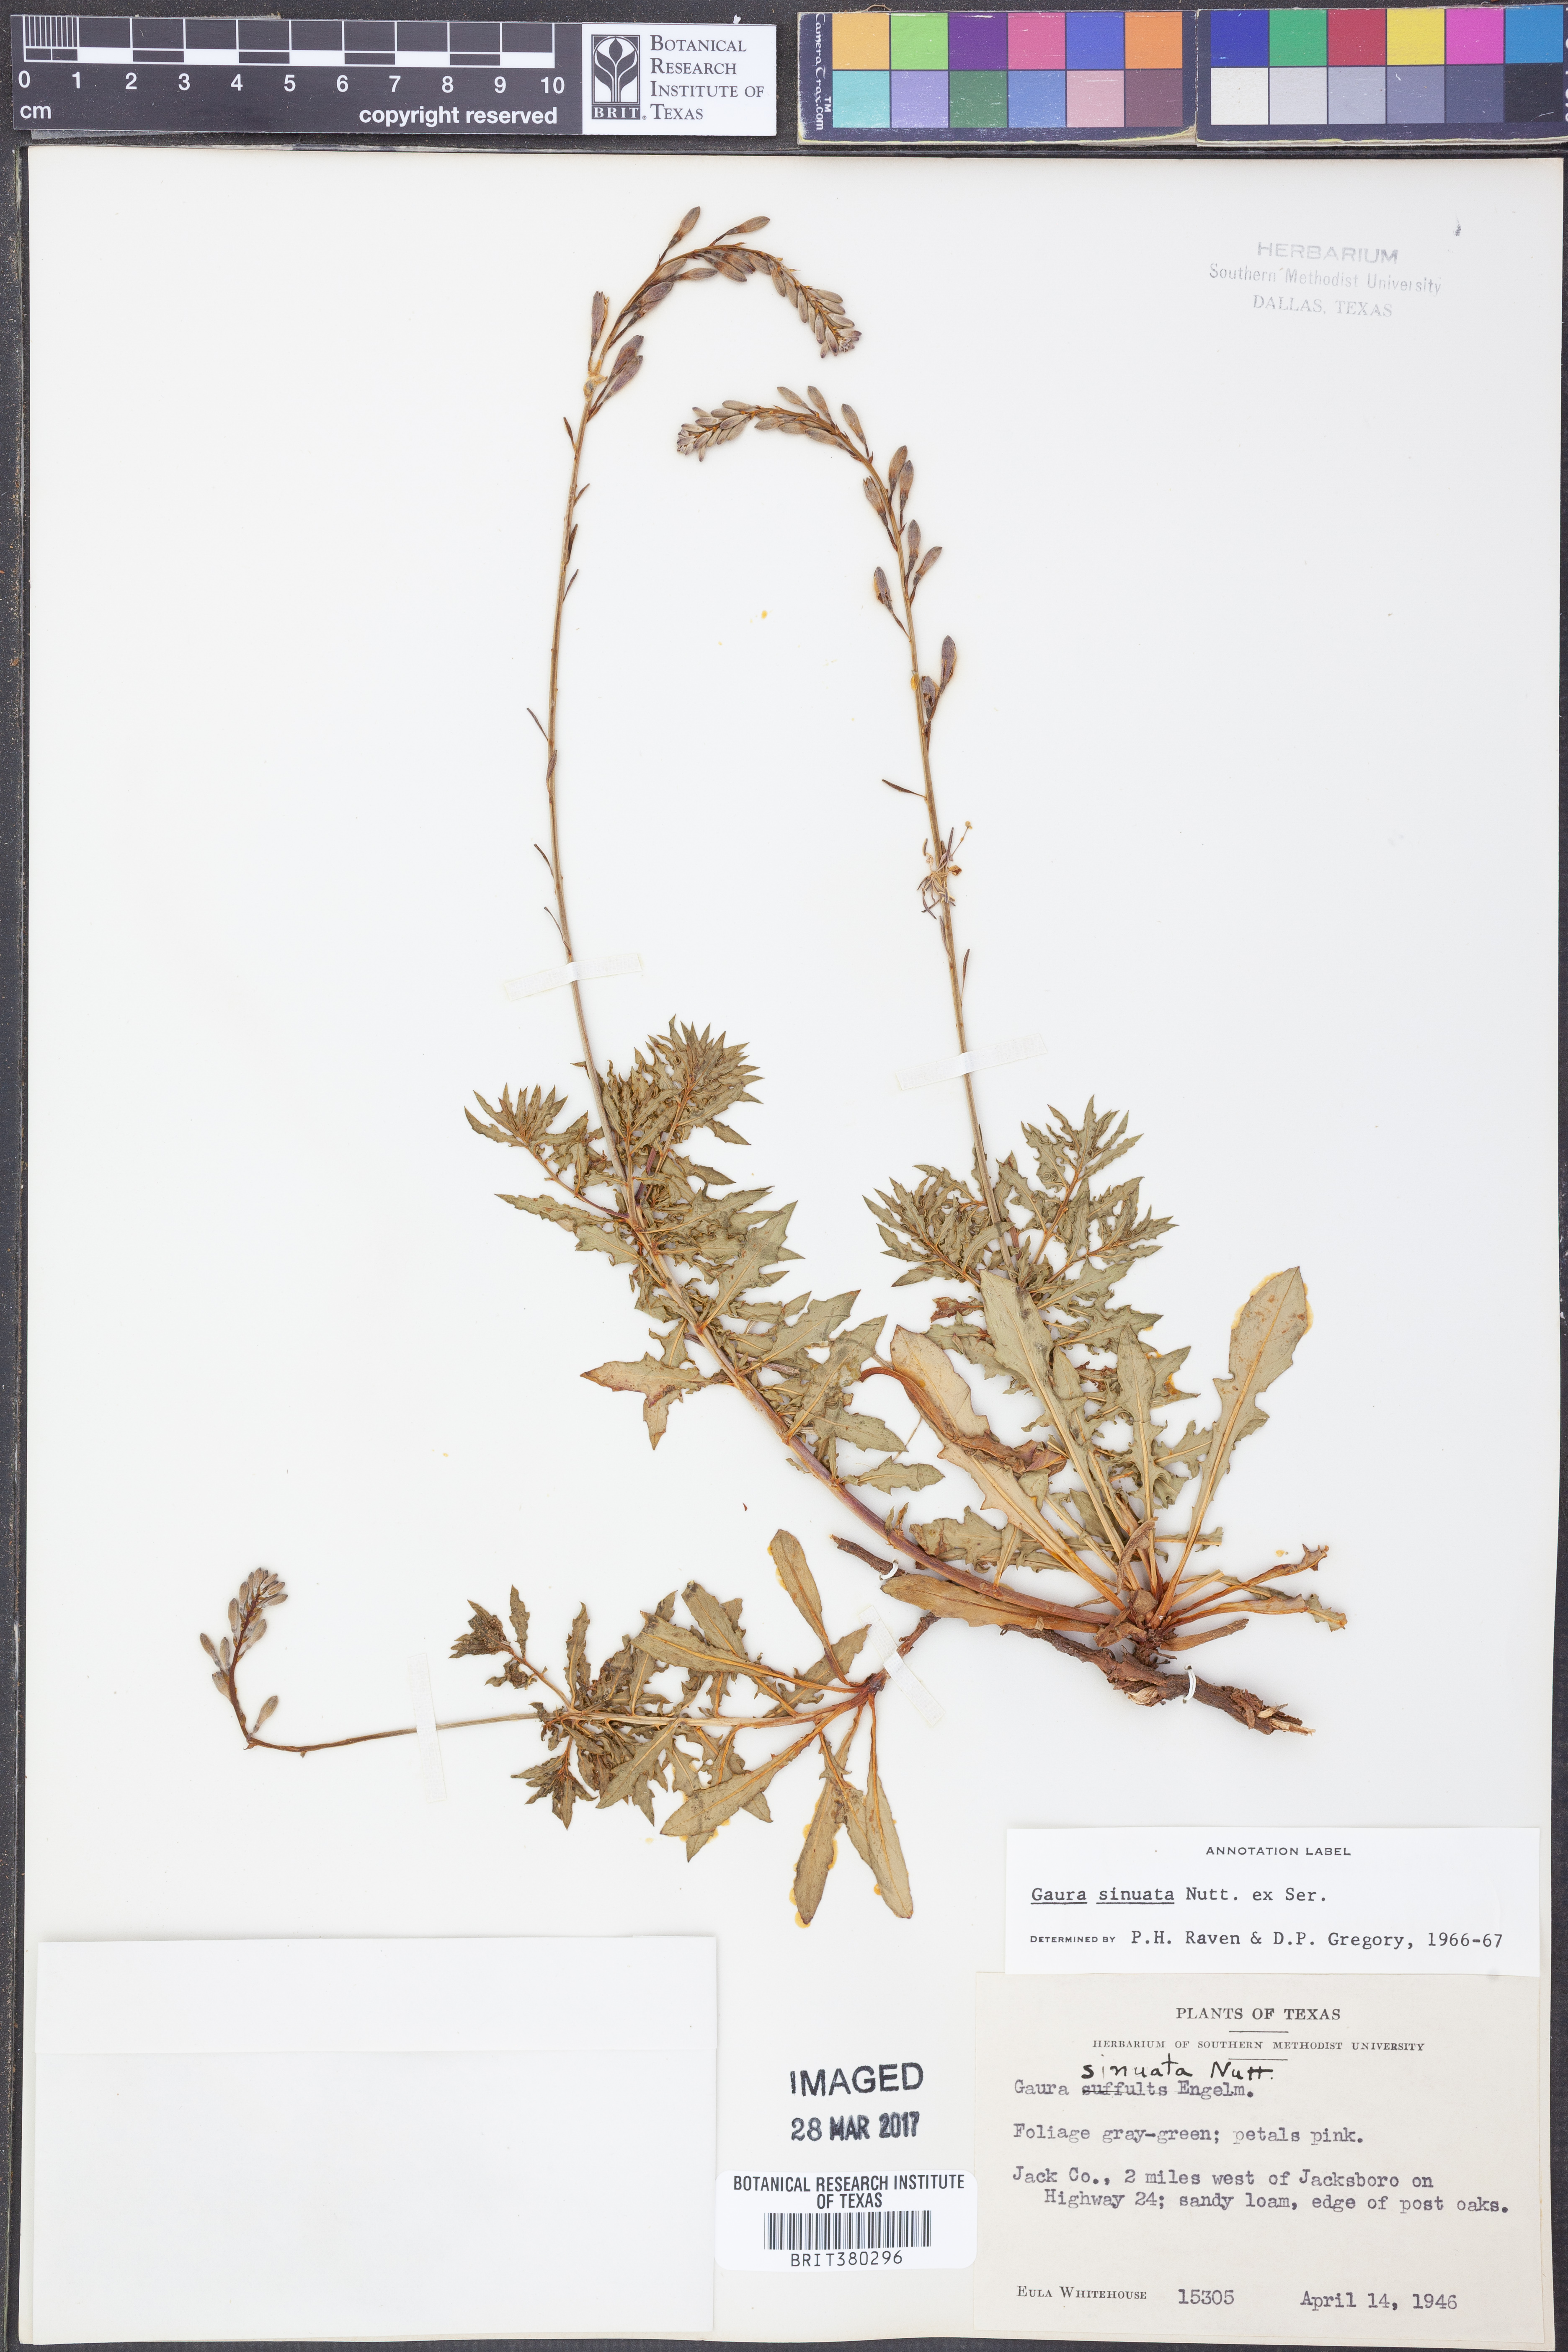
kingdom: Plantae
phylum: Tracheophyta
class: Magnoliopsida
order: Myrtales
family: Onagraceae
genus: Oenothera
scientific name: Oenothera sinuosa
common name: Wavyleaf beeblossom
